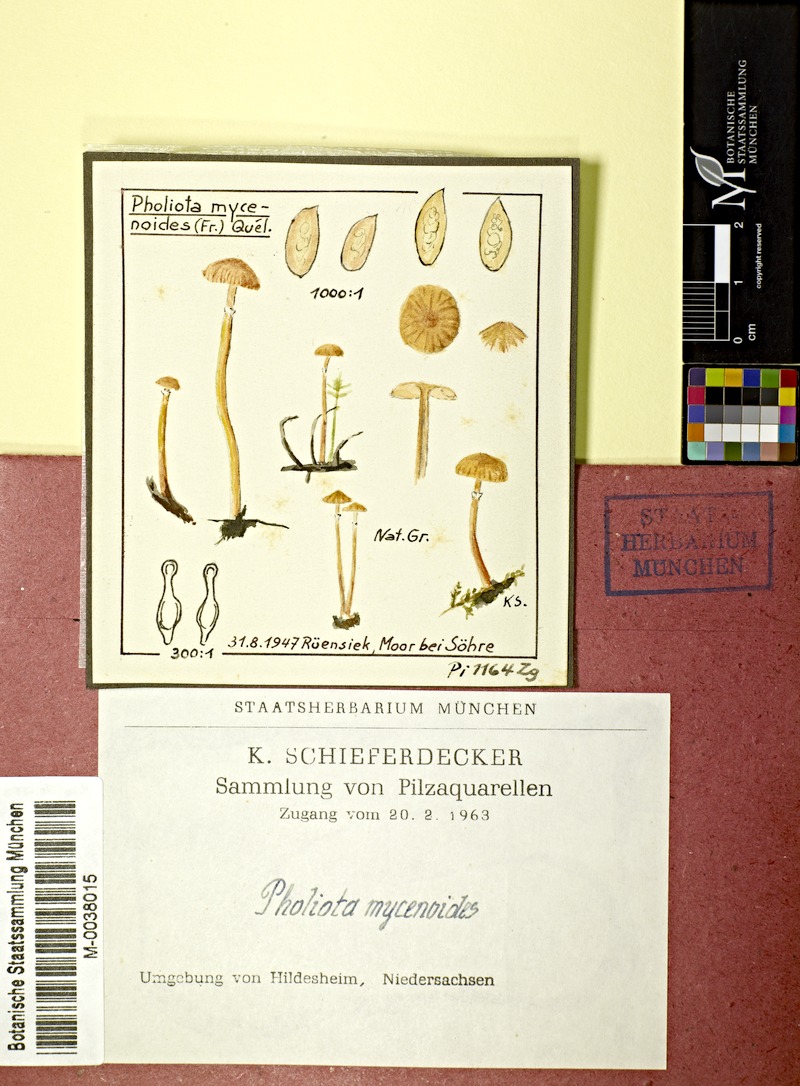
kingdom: Fungi
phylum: Basidiomycota
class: Agaricomycetes
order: Agaricales
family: Hymenogastraceae
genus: Galerina
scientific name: Galerina mycenoides
